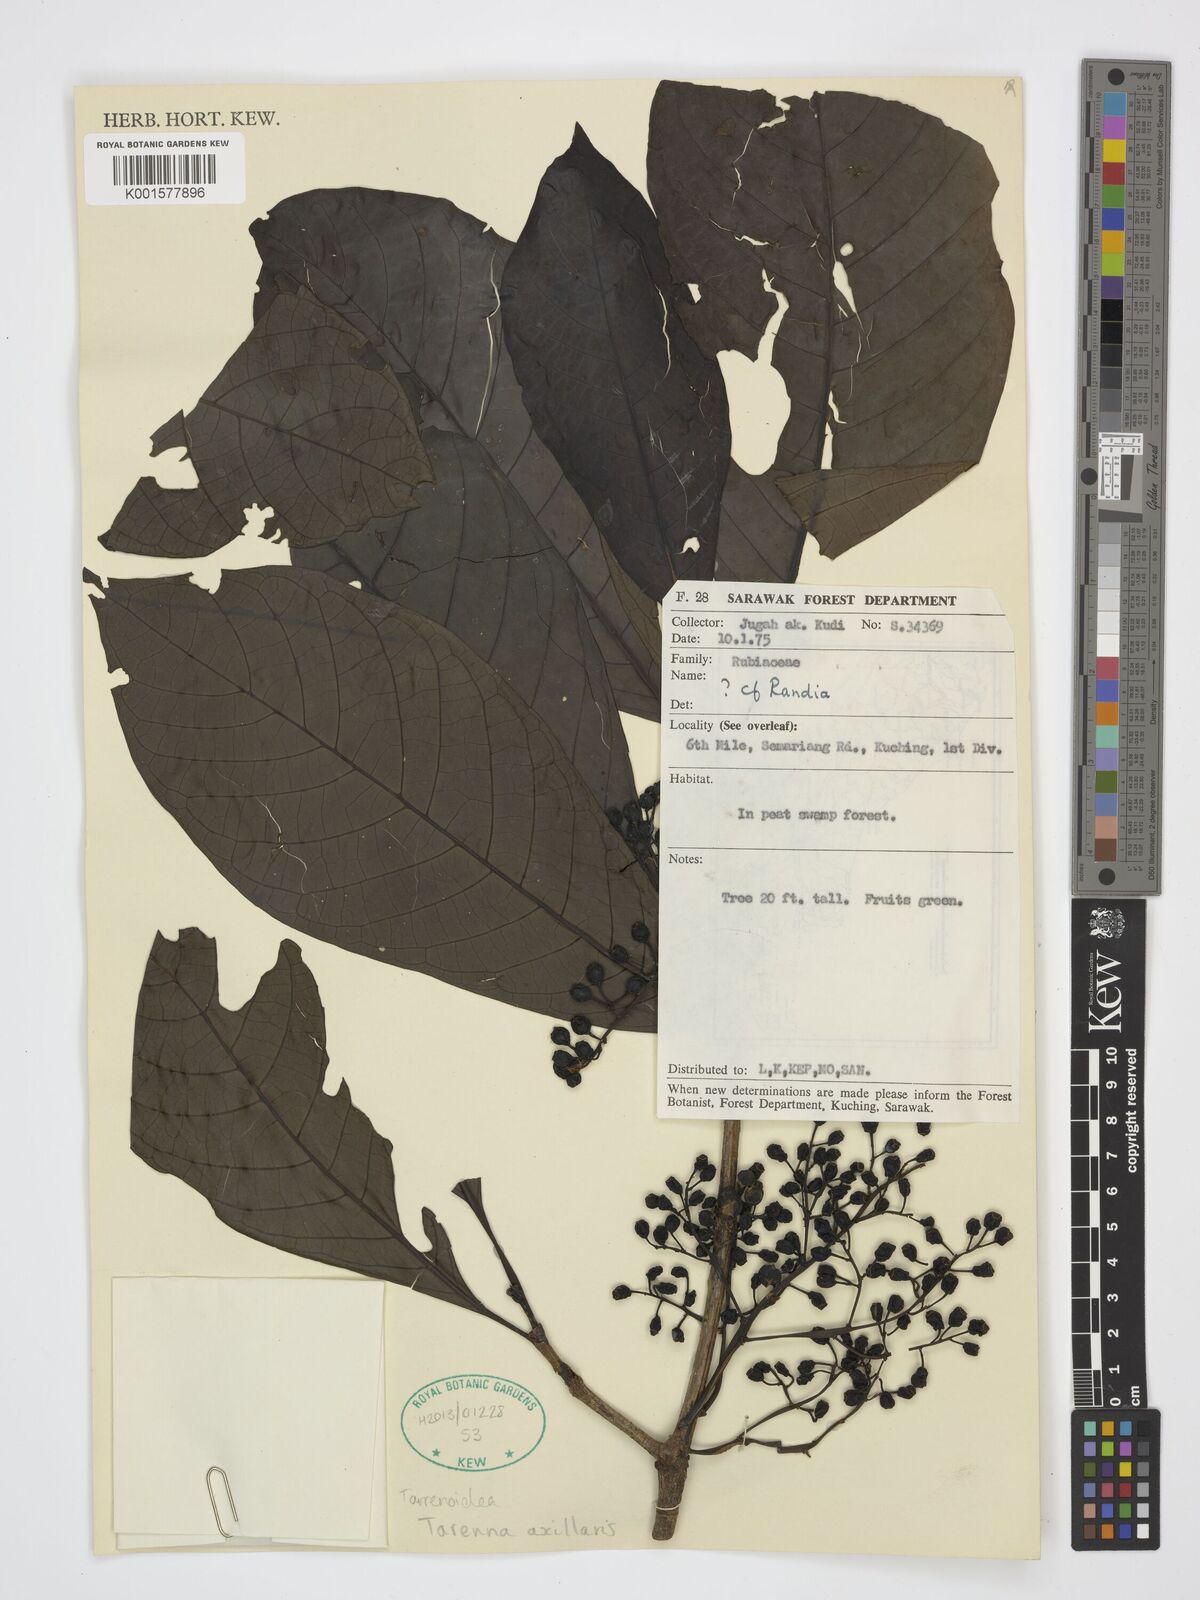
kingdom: Plantae
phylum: Tracheophyta
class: Magnoliopsida
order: Gentianales
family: Rubiaceae
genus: Tarennoidea
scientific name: Tarennoidea axillaris
